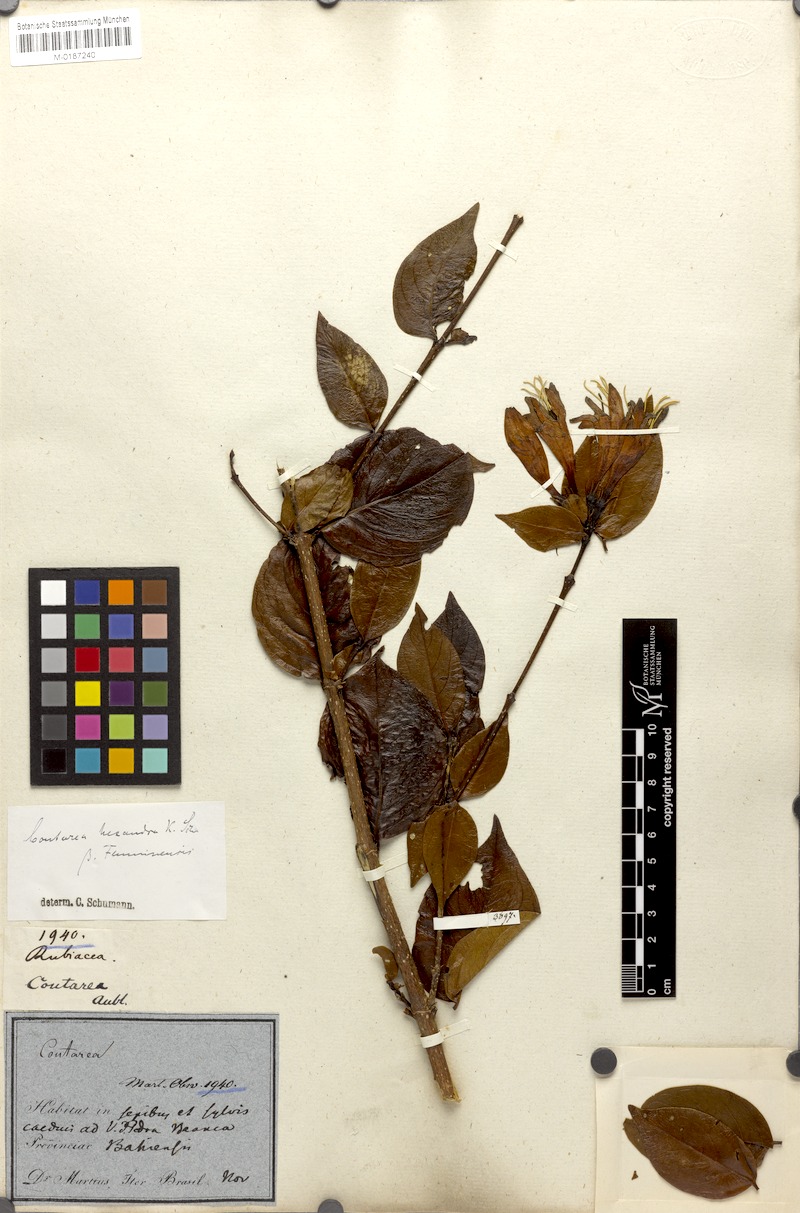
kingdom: Plantae
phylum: Tracheophyta
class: Magnoliopsida
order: Gentianales
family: Rubiaceae
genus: Coutarea
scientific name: Coutarea hexandra
